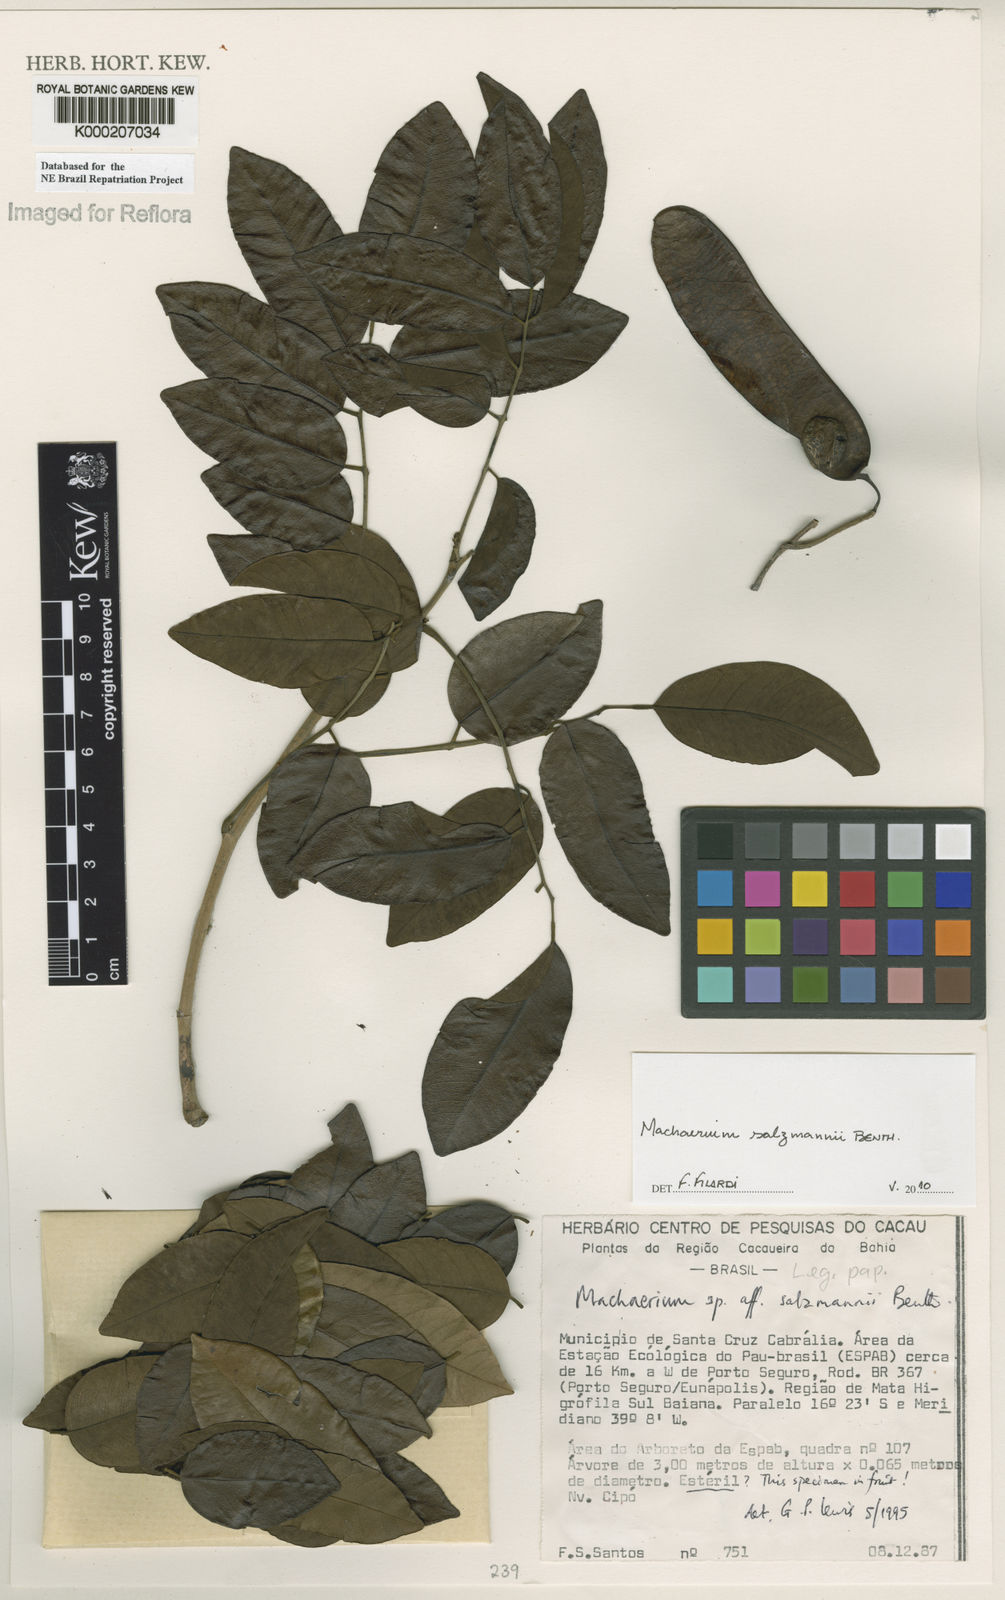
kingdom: Plantae
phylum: Tracheophyta
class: Magnoliopsida
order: Fabales
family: Fabaceae
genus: Machaerium
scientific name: Machaerium salzmannii
